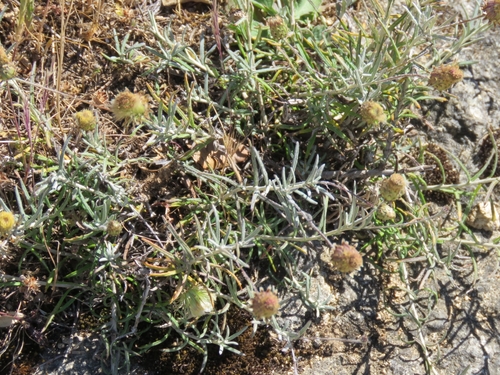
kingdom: Plantae
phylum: Tracheophyta
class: Magnoliopsida
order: Asterales
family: Asteraceae
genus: Phagnalon
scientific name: Phagnalon saxatile
